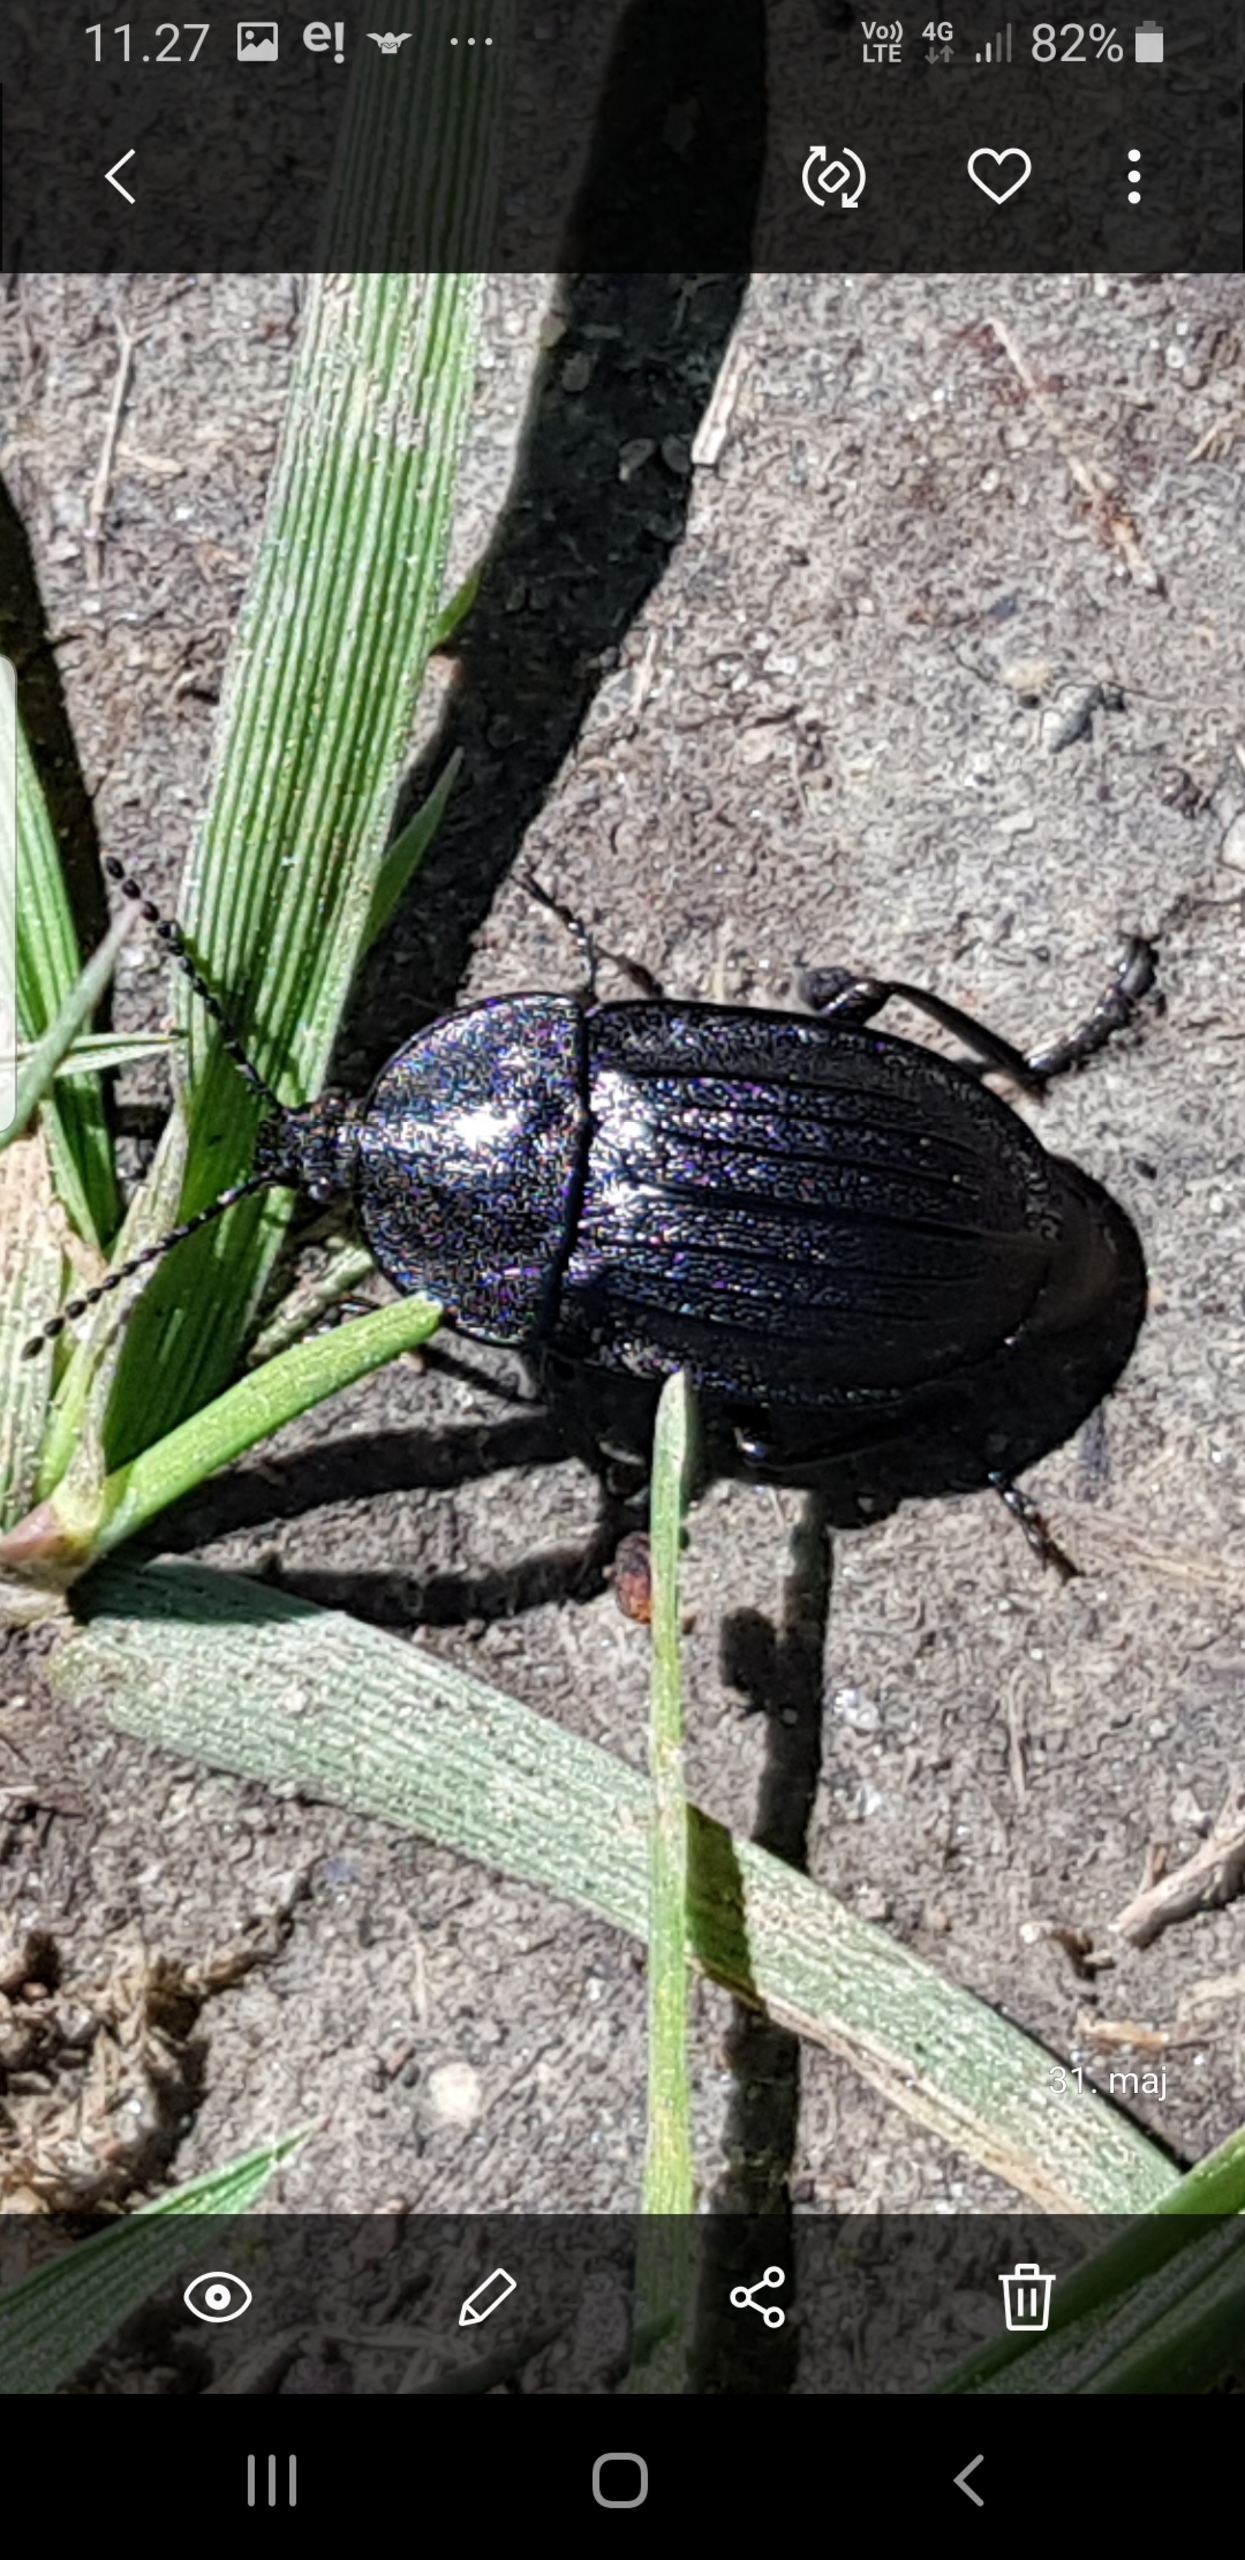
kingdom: Animalia
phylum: Arthropoda
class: Insecta
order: Coleoptera
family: Staphylinidae
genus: Silpha
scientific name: Silpha atrata
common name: Snegleådselbille
